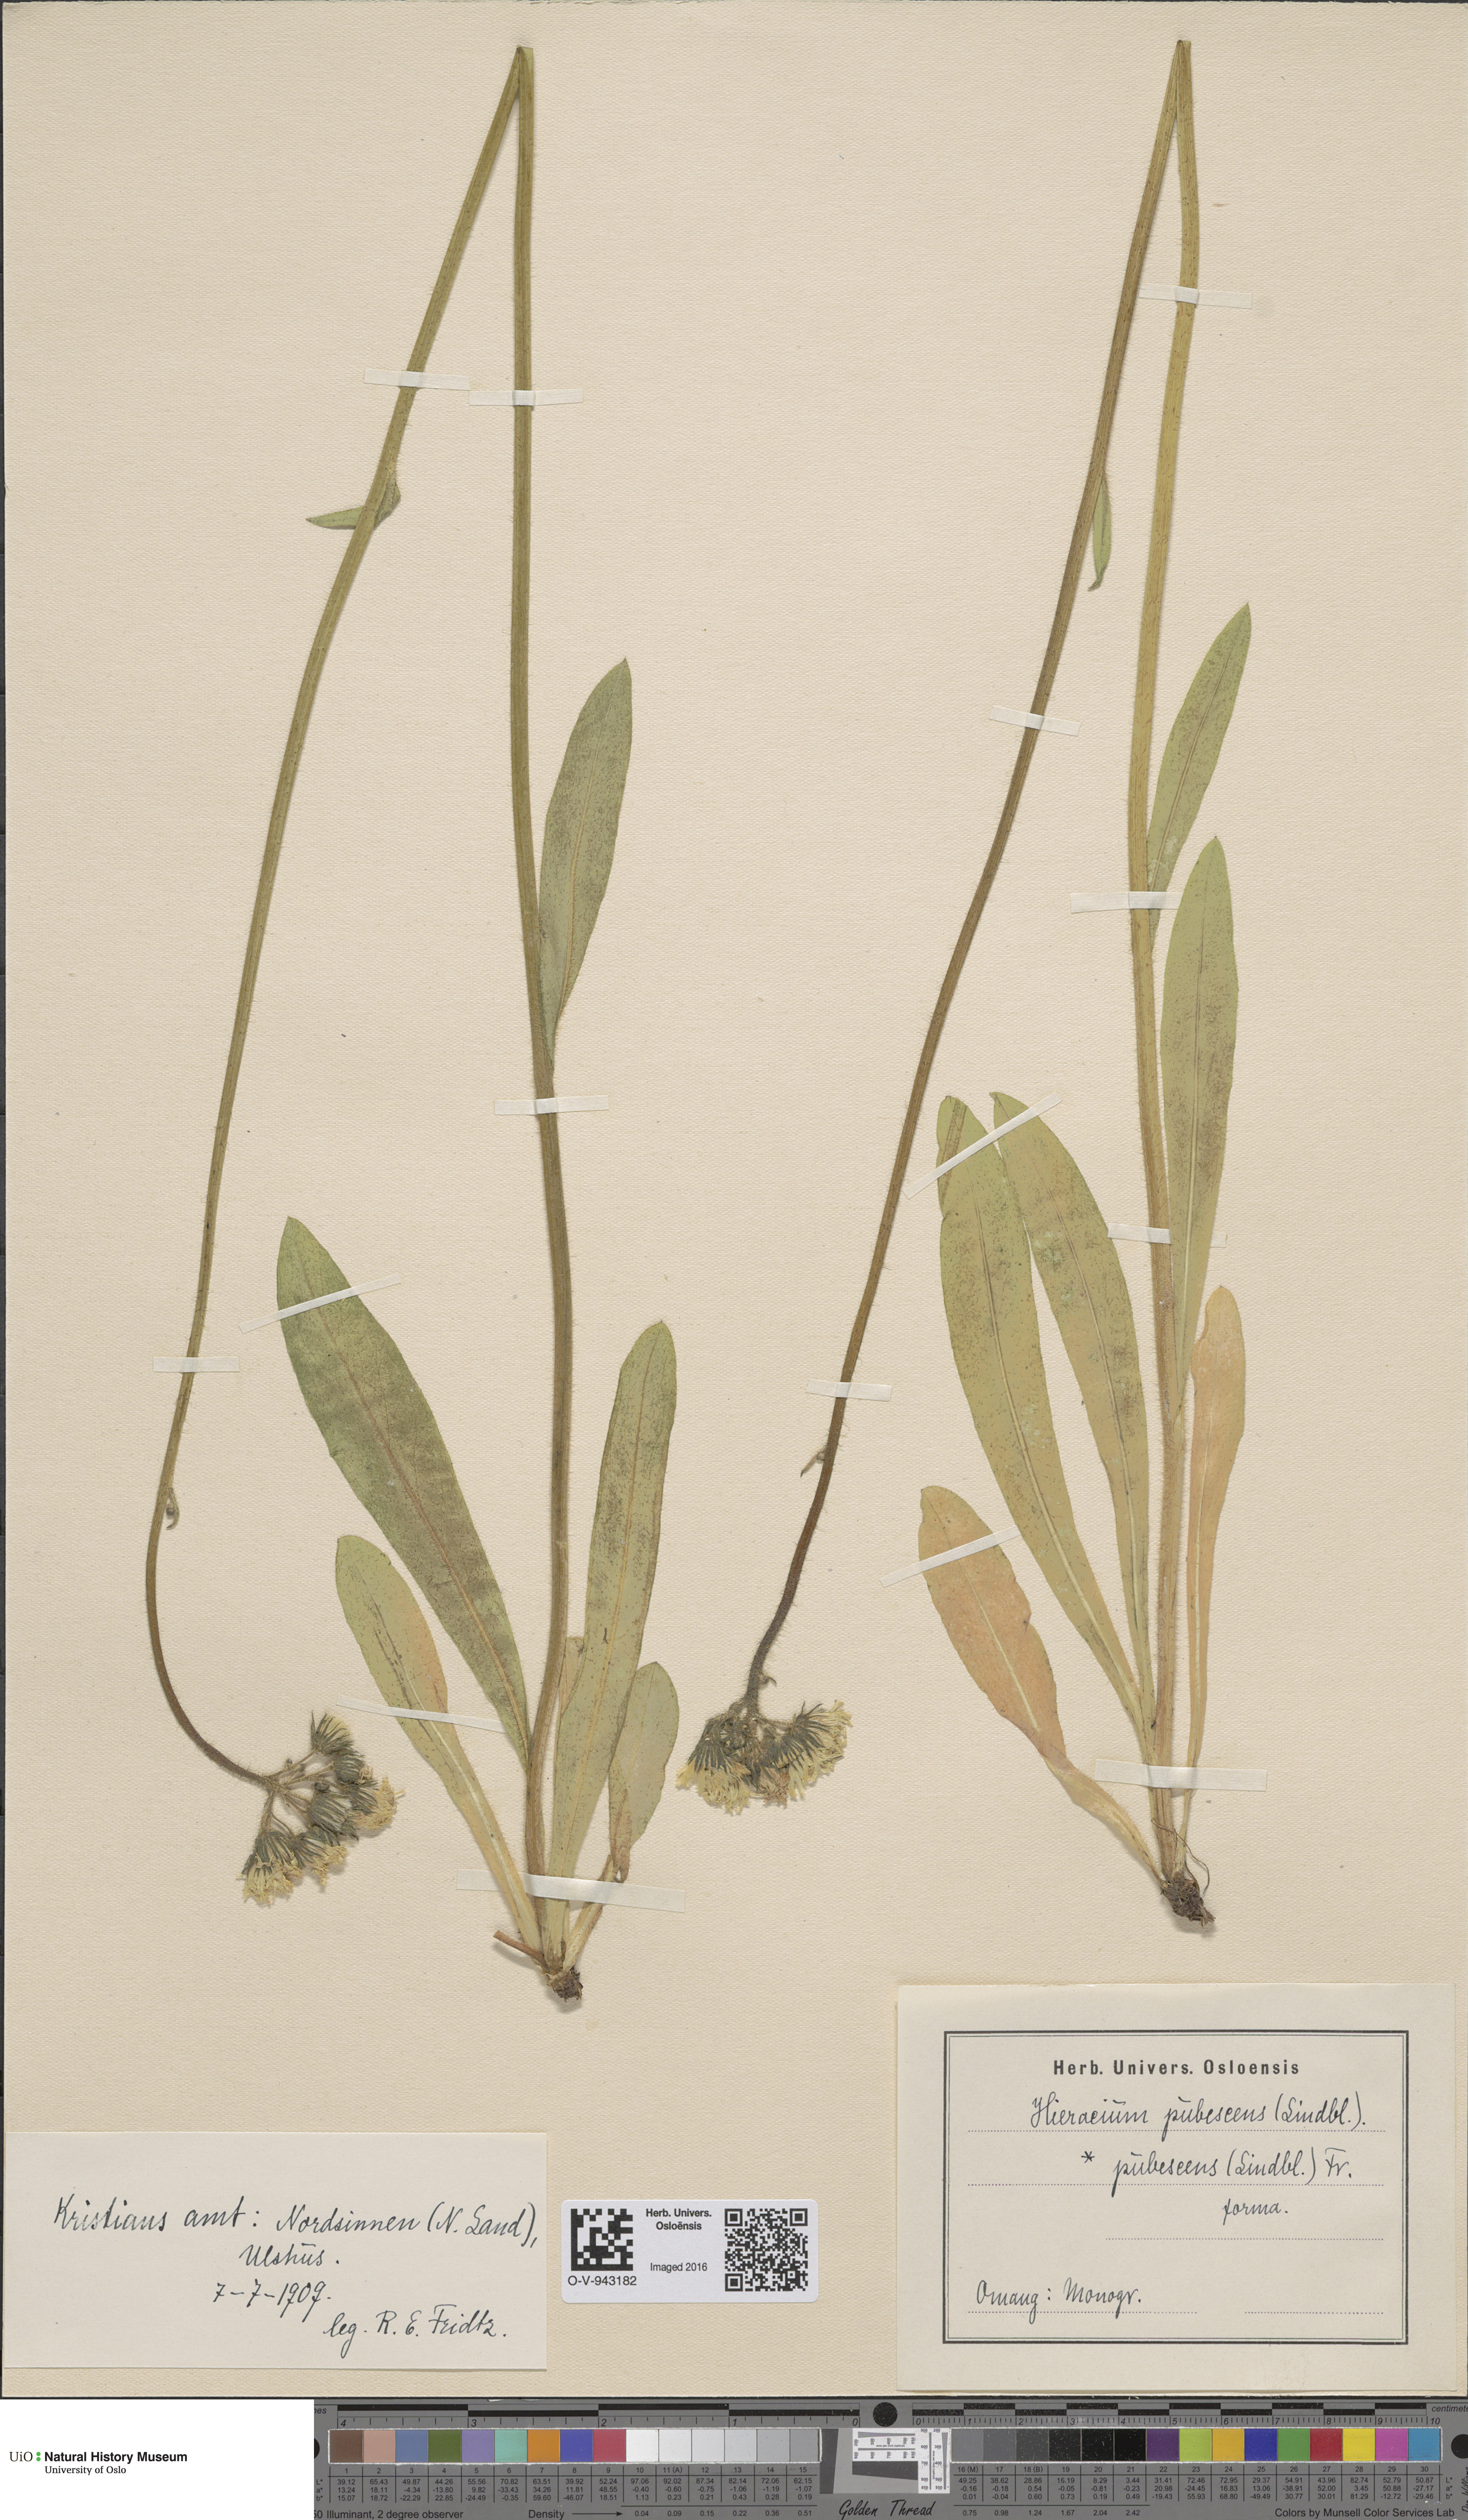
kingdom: Plantae
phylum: Tracheophyta
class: Magnoliopsida
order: Asterales
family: Asteraceae
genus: Pilosella
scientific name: Pilosella cymosa
